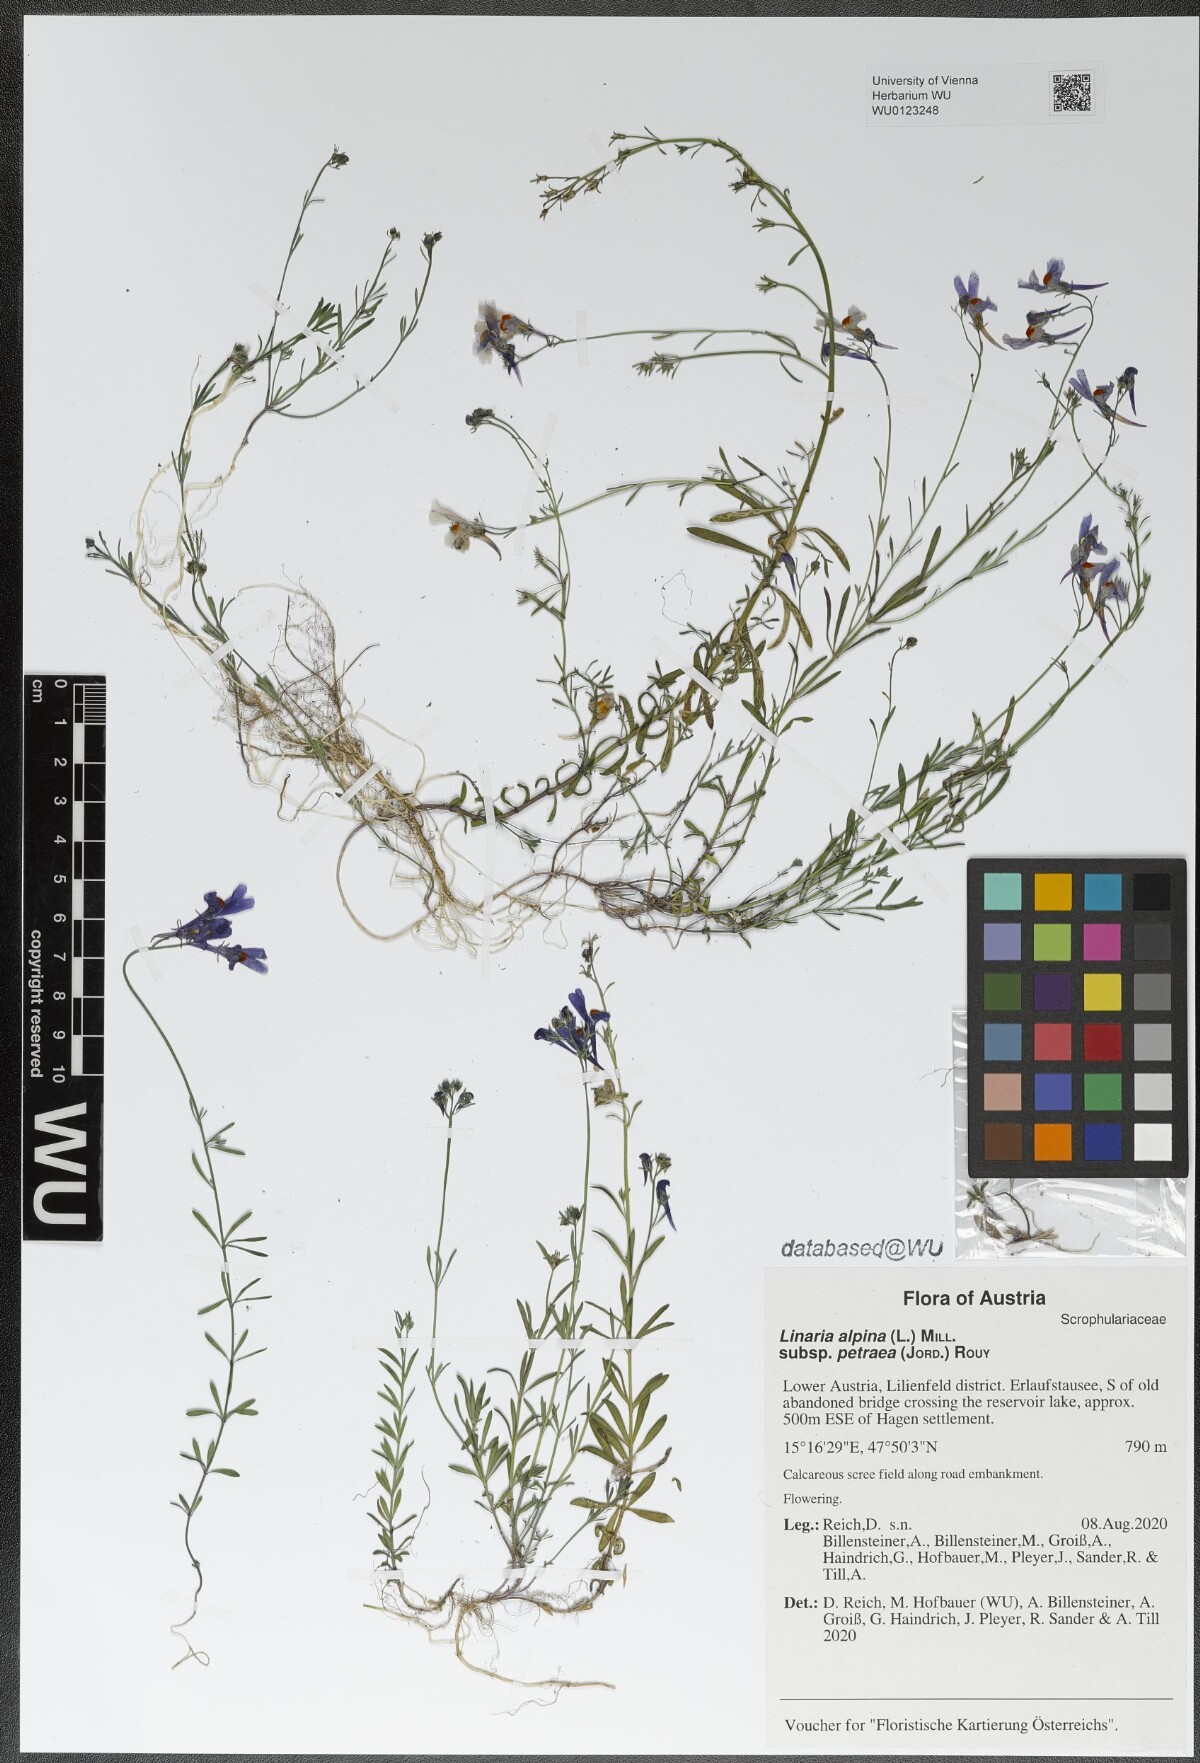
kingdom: Plantae
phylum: Tracheophyta
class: Magnoliopsida
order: Lamiales
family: Plantaginaceae
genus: Linaria
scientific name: Linaria alpina
